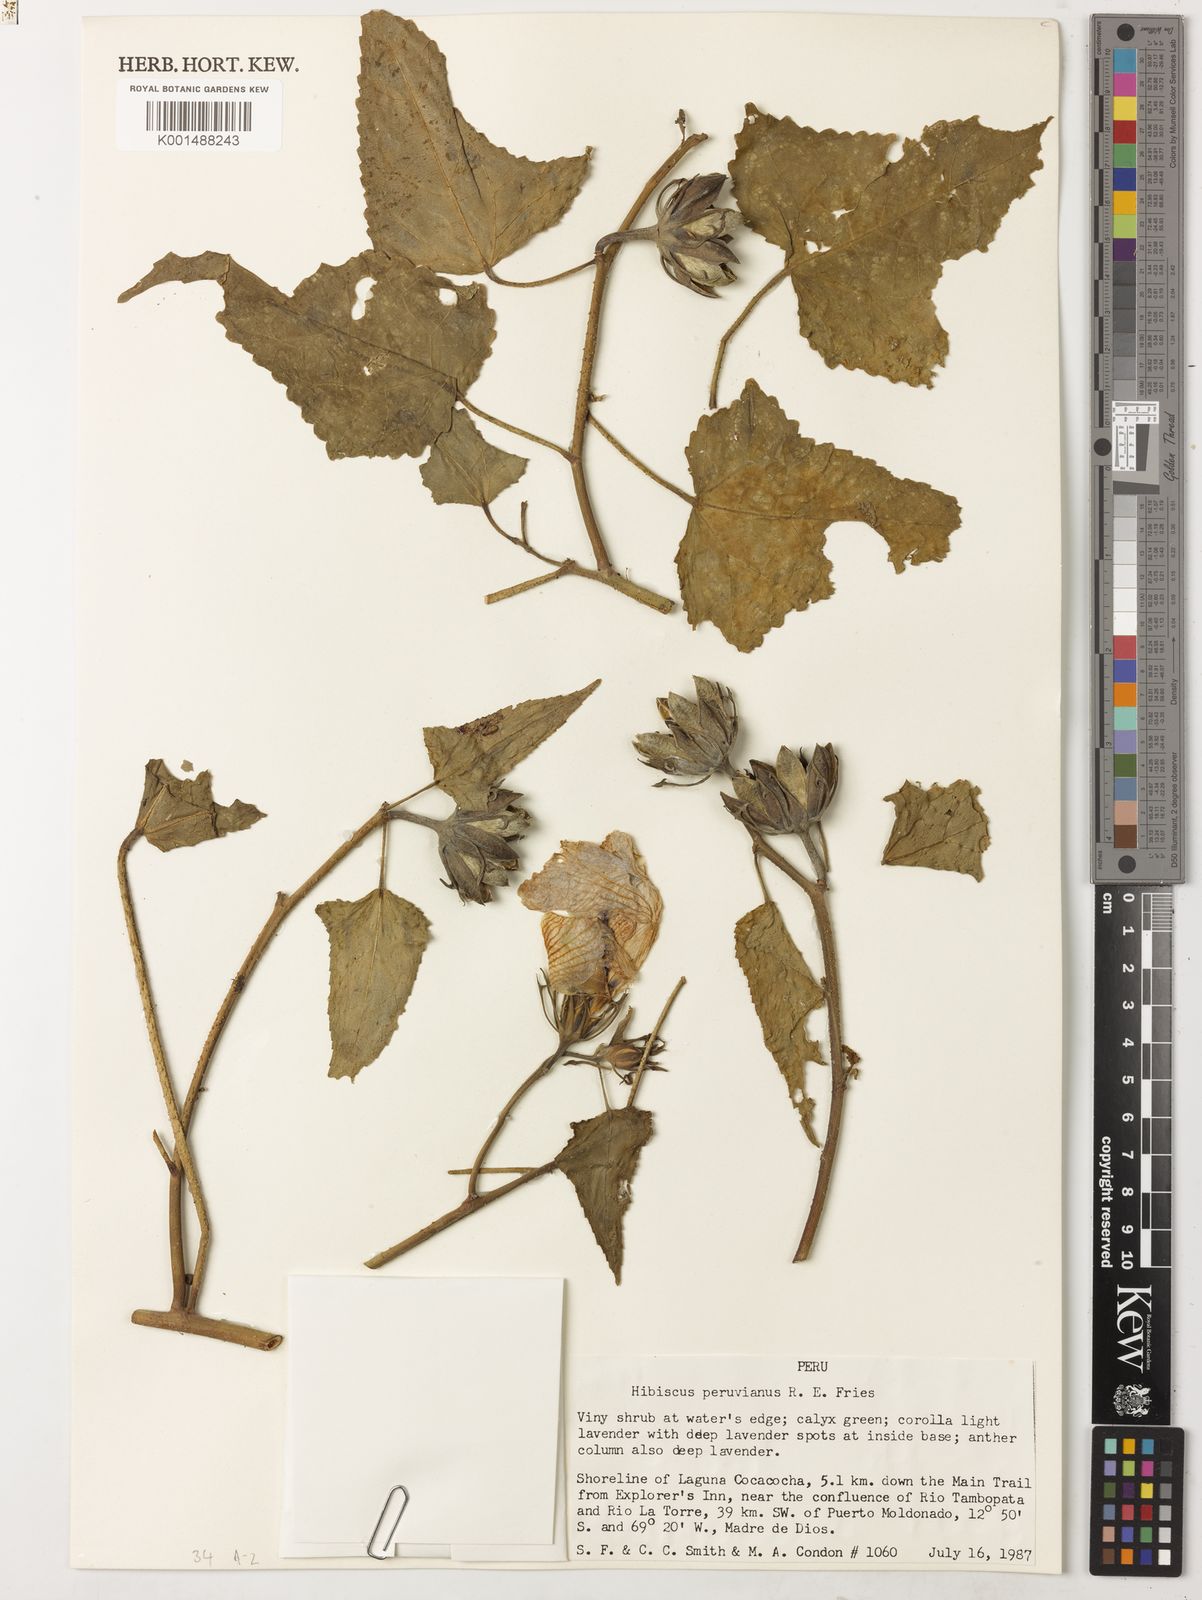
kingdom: Plantae
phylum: Tracheophyta
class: Magnoliopsida
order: Malvales
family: Malvaceae
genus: Hibiscus
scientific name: Hibiscus peruvianus
